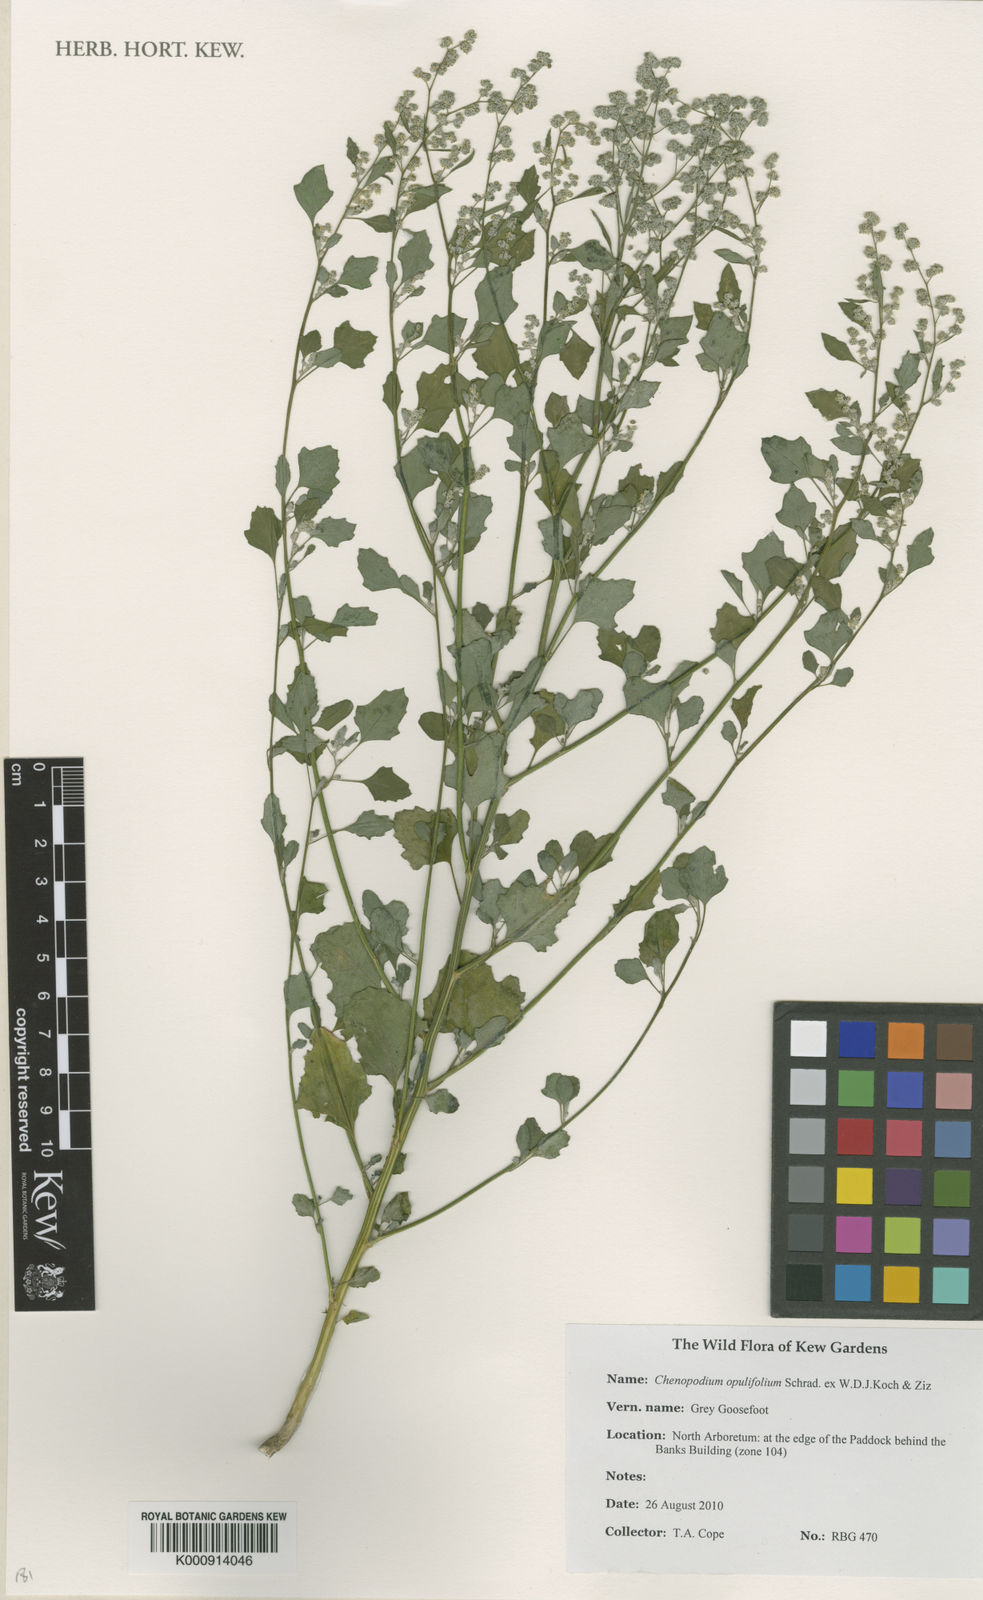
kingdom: Plantae
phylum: Tracheophyta
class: Magnoliopsida
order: Caryophyllales
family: Amaranthaceae
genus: Chenopodium
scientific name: Chenopodium opulifolium
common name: Grey goosefoot
